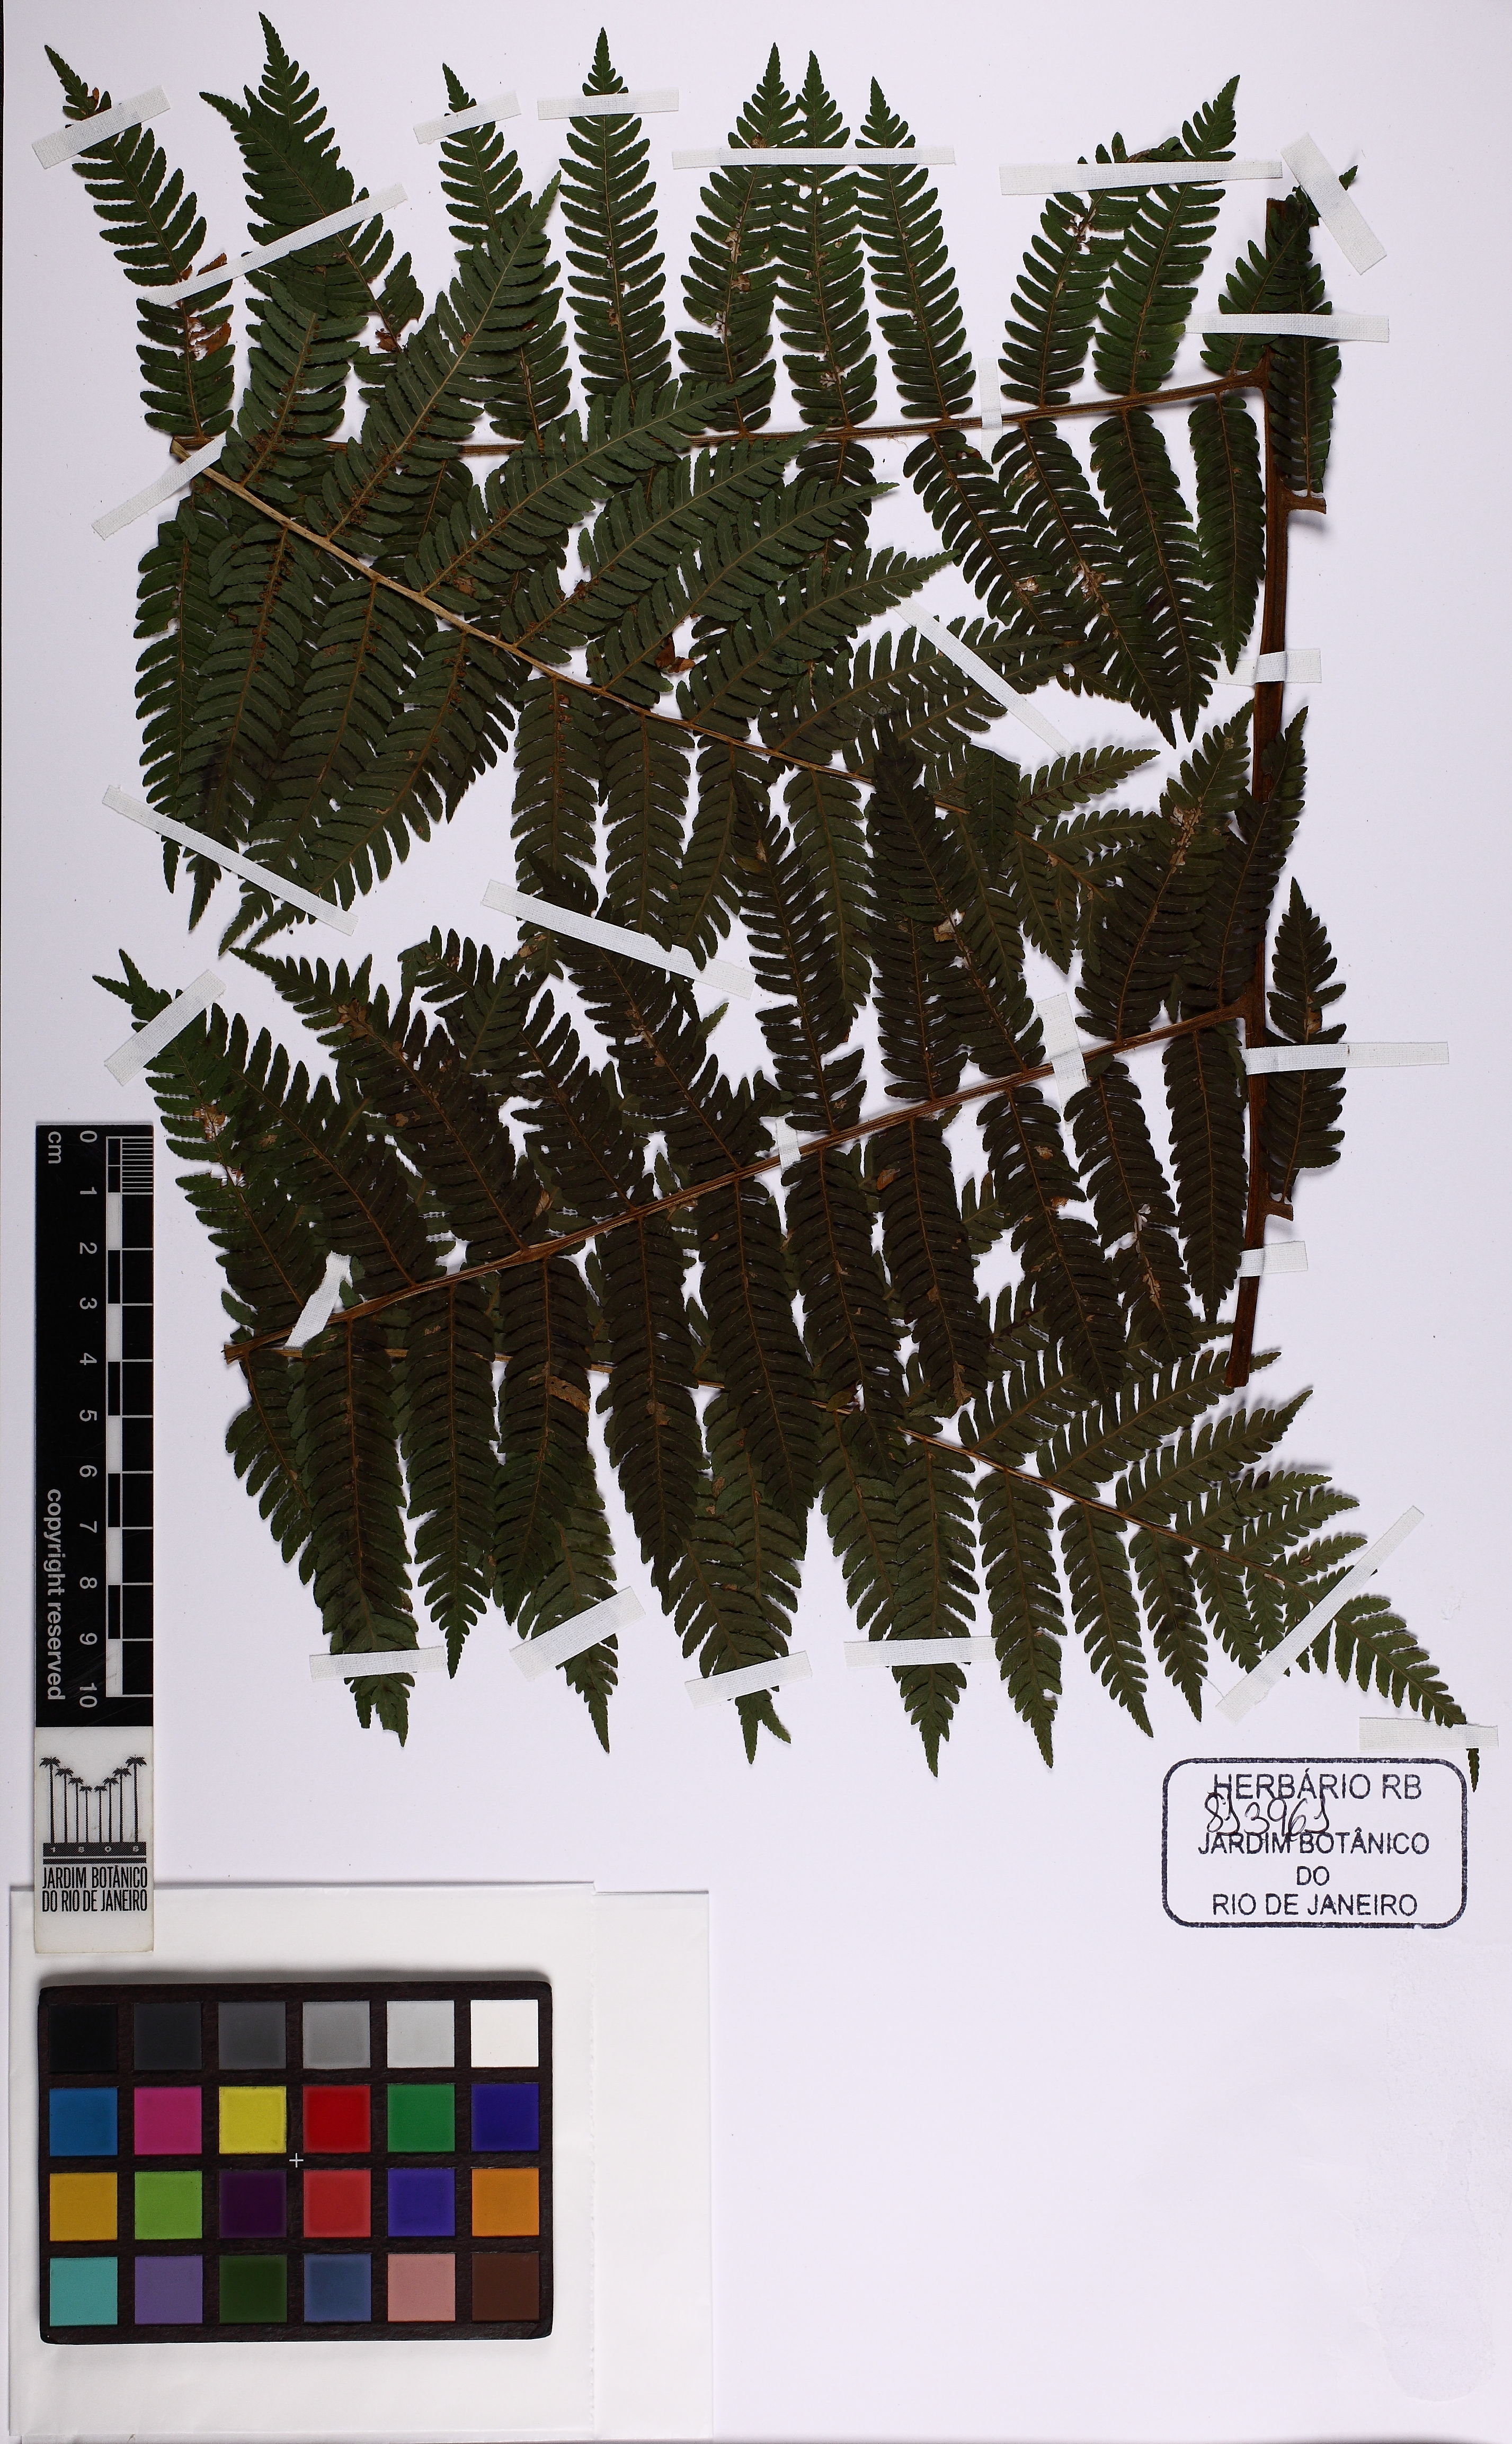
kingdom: Plantae
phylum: Tracheophyta
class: Polypodiopsida
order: Cyatheales
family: Cyatheaceae
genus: Cyathea
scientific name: Cyathea delgadii
